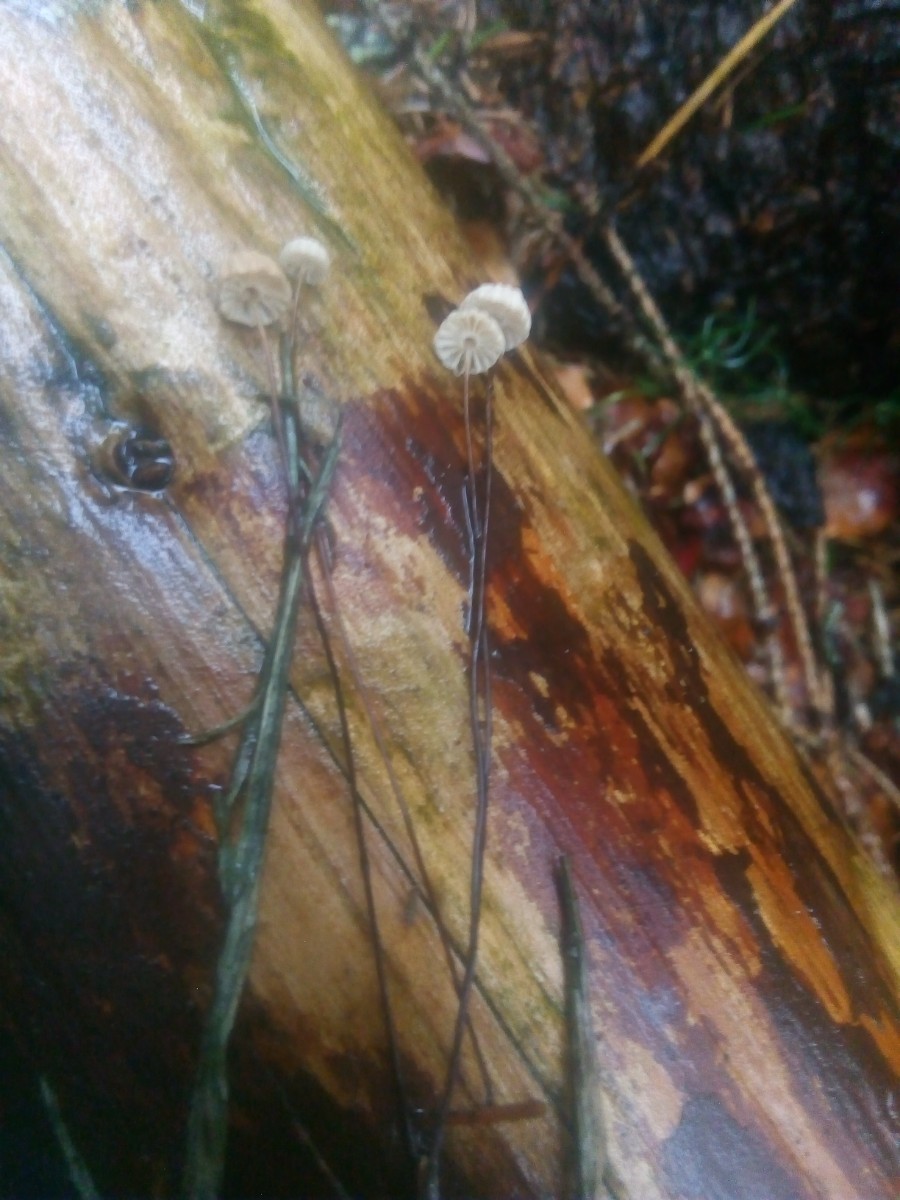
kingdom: Fungi
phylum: Basidiomycota
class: Agaricomycetes
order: Agaricales
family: Marasmiaceae
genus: Marasmius
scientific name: Marasmius wettsteinii
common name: Wettsteins bruskhat
